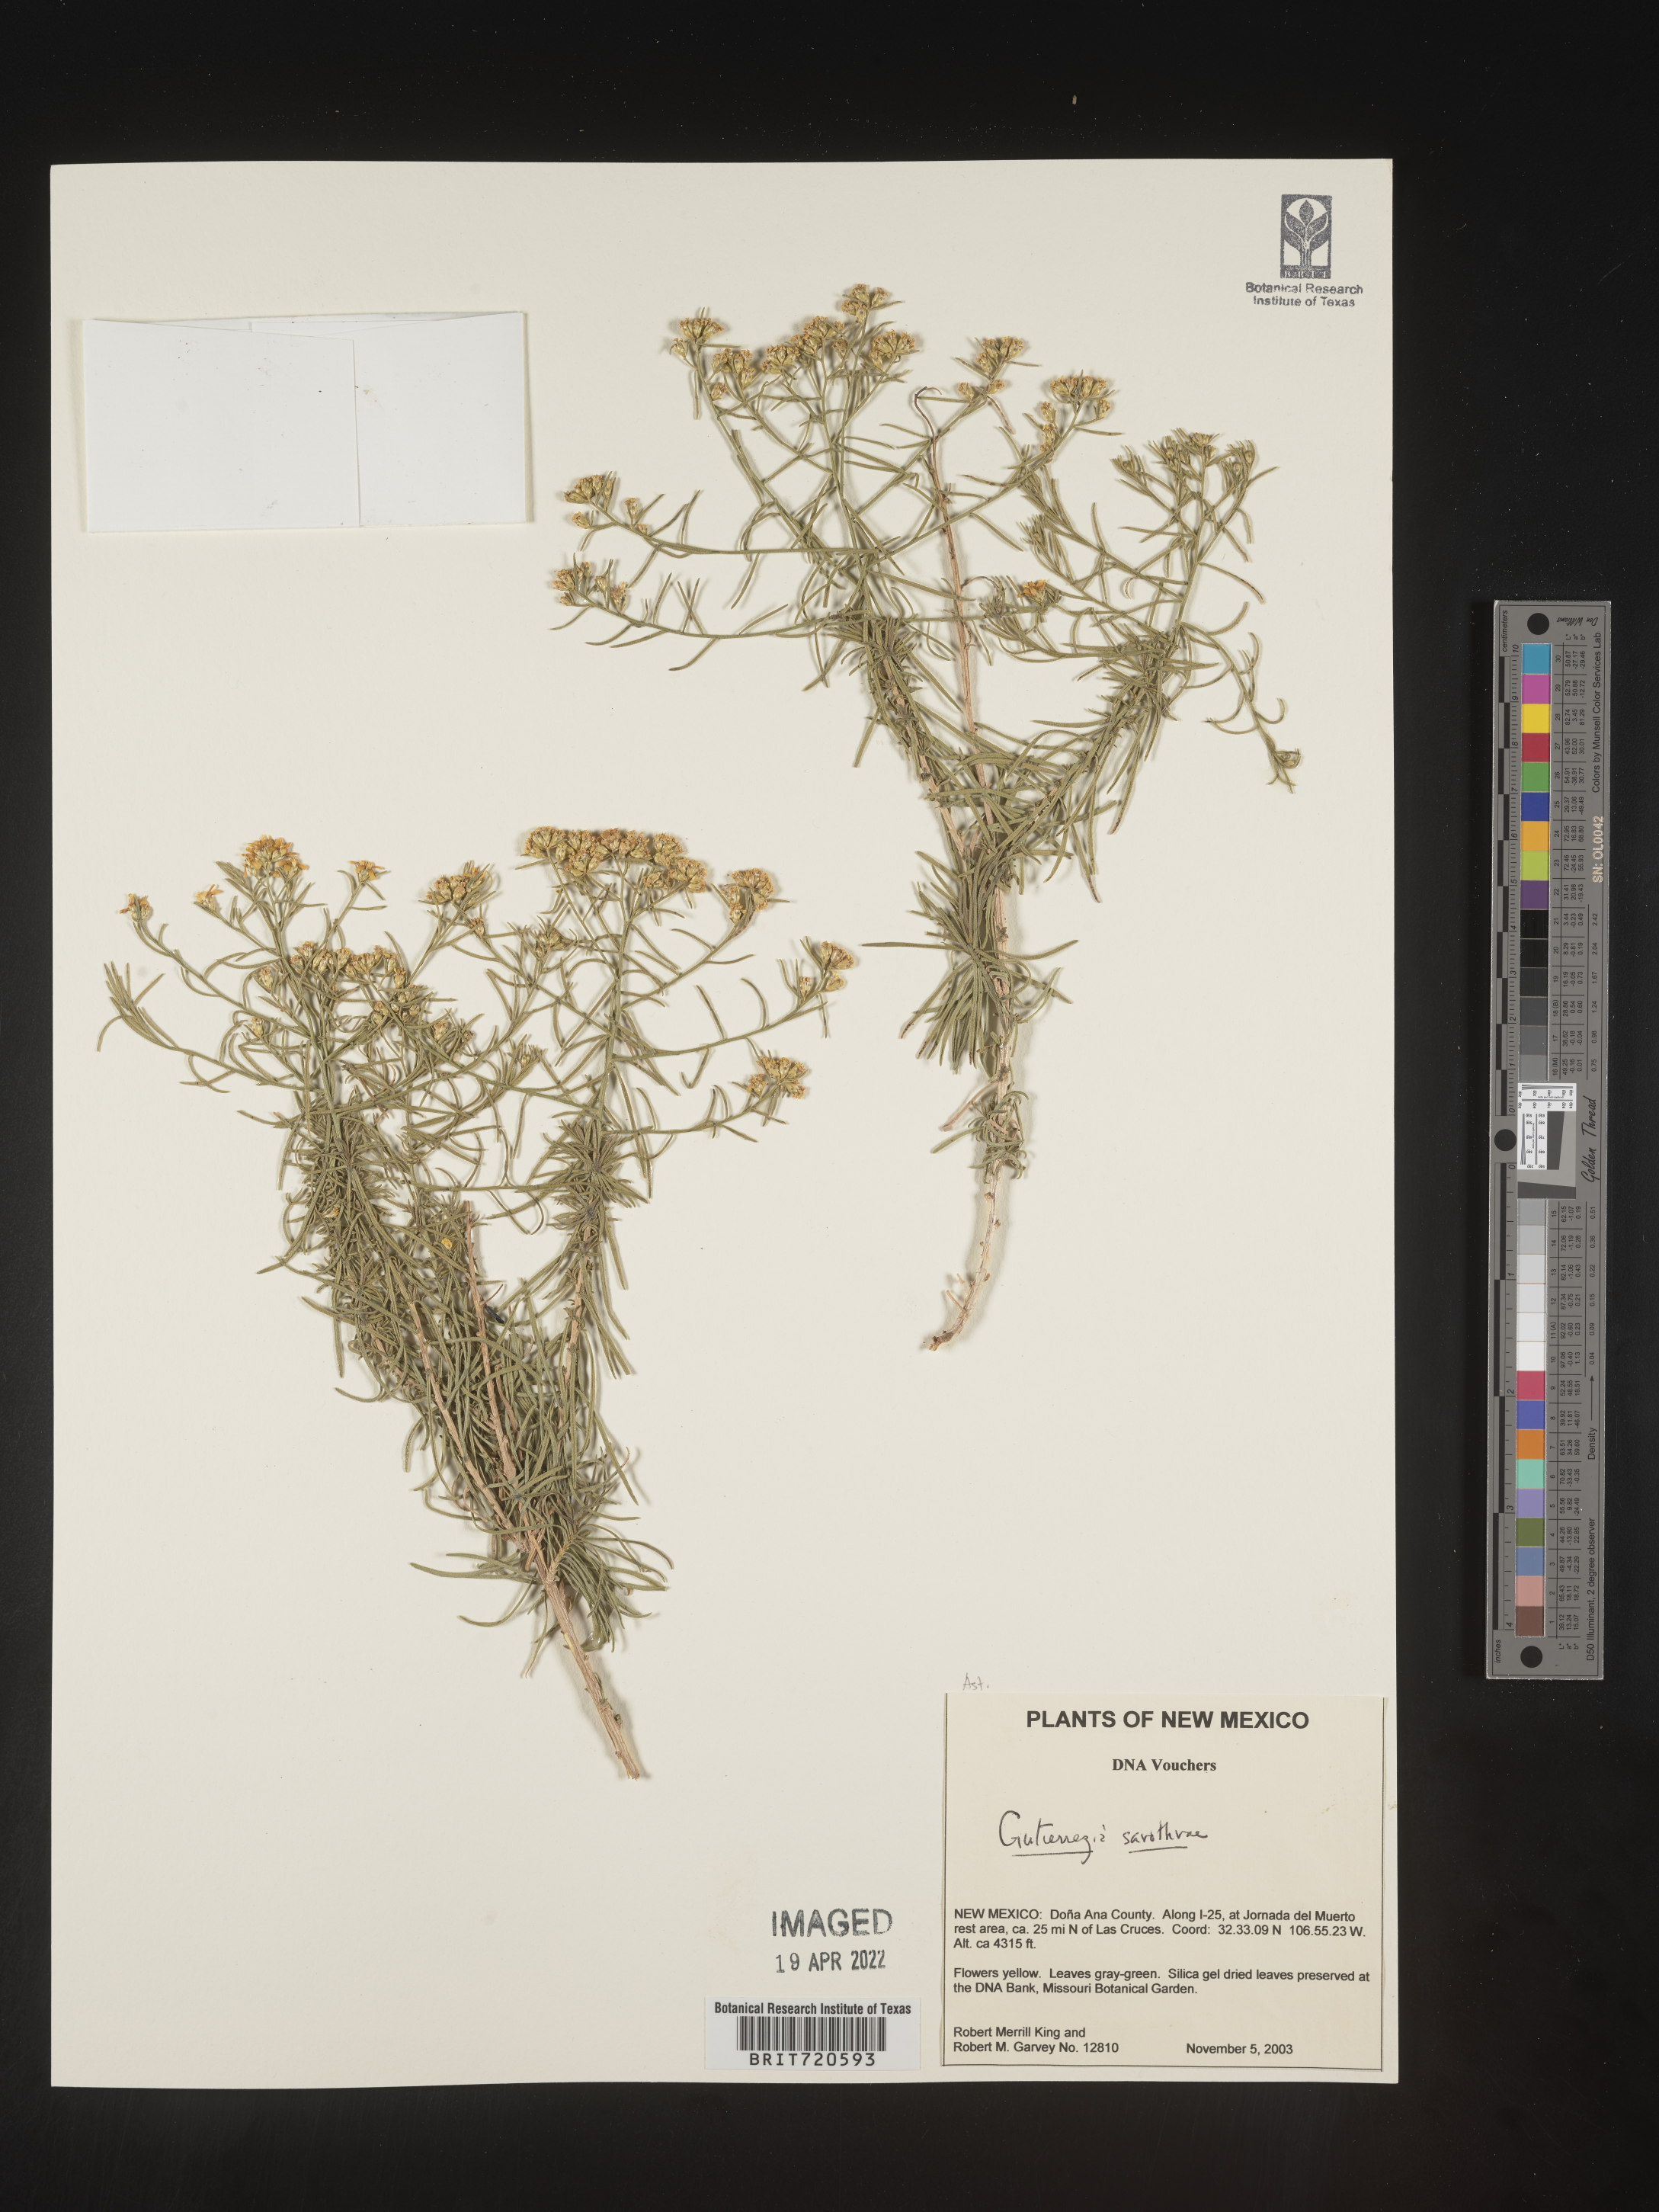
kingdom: Plantae
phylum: Tracheophyta
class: Magnoliopsida
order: Asterales
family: Asteraceae
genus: Gutierrezia
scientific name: Gutierrezia sarothrae
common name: Broom snakeweed
